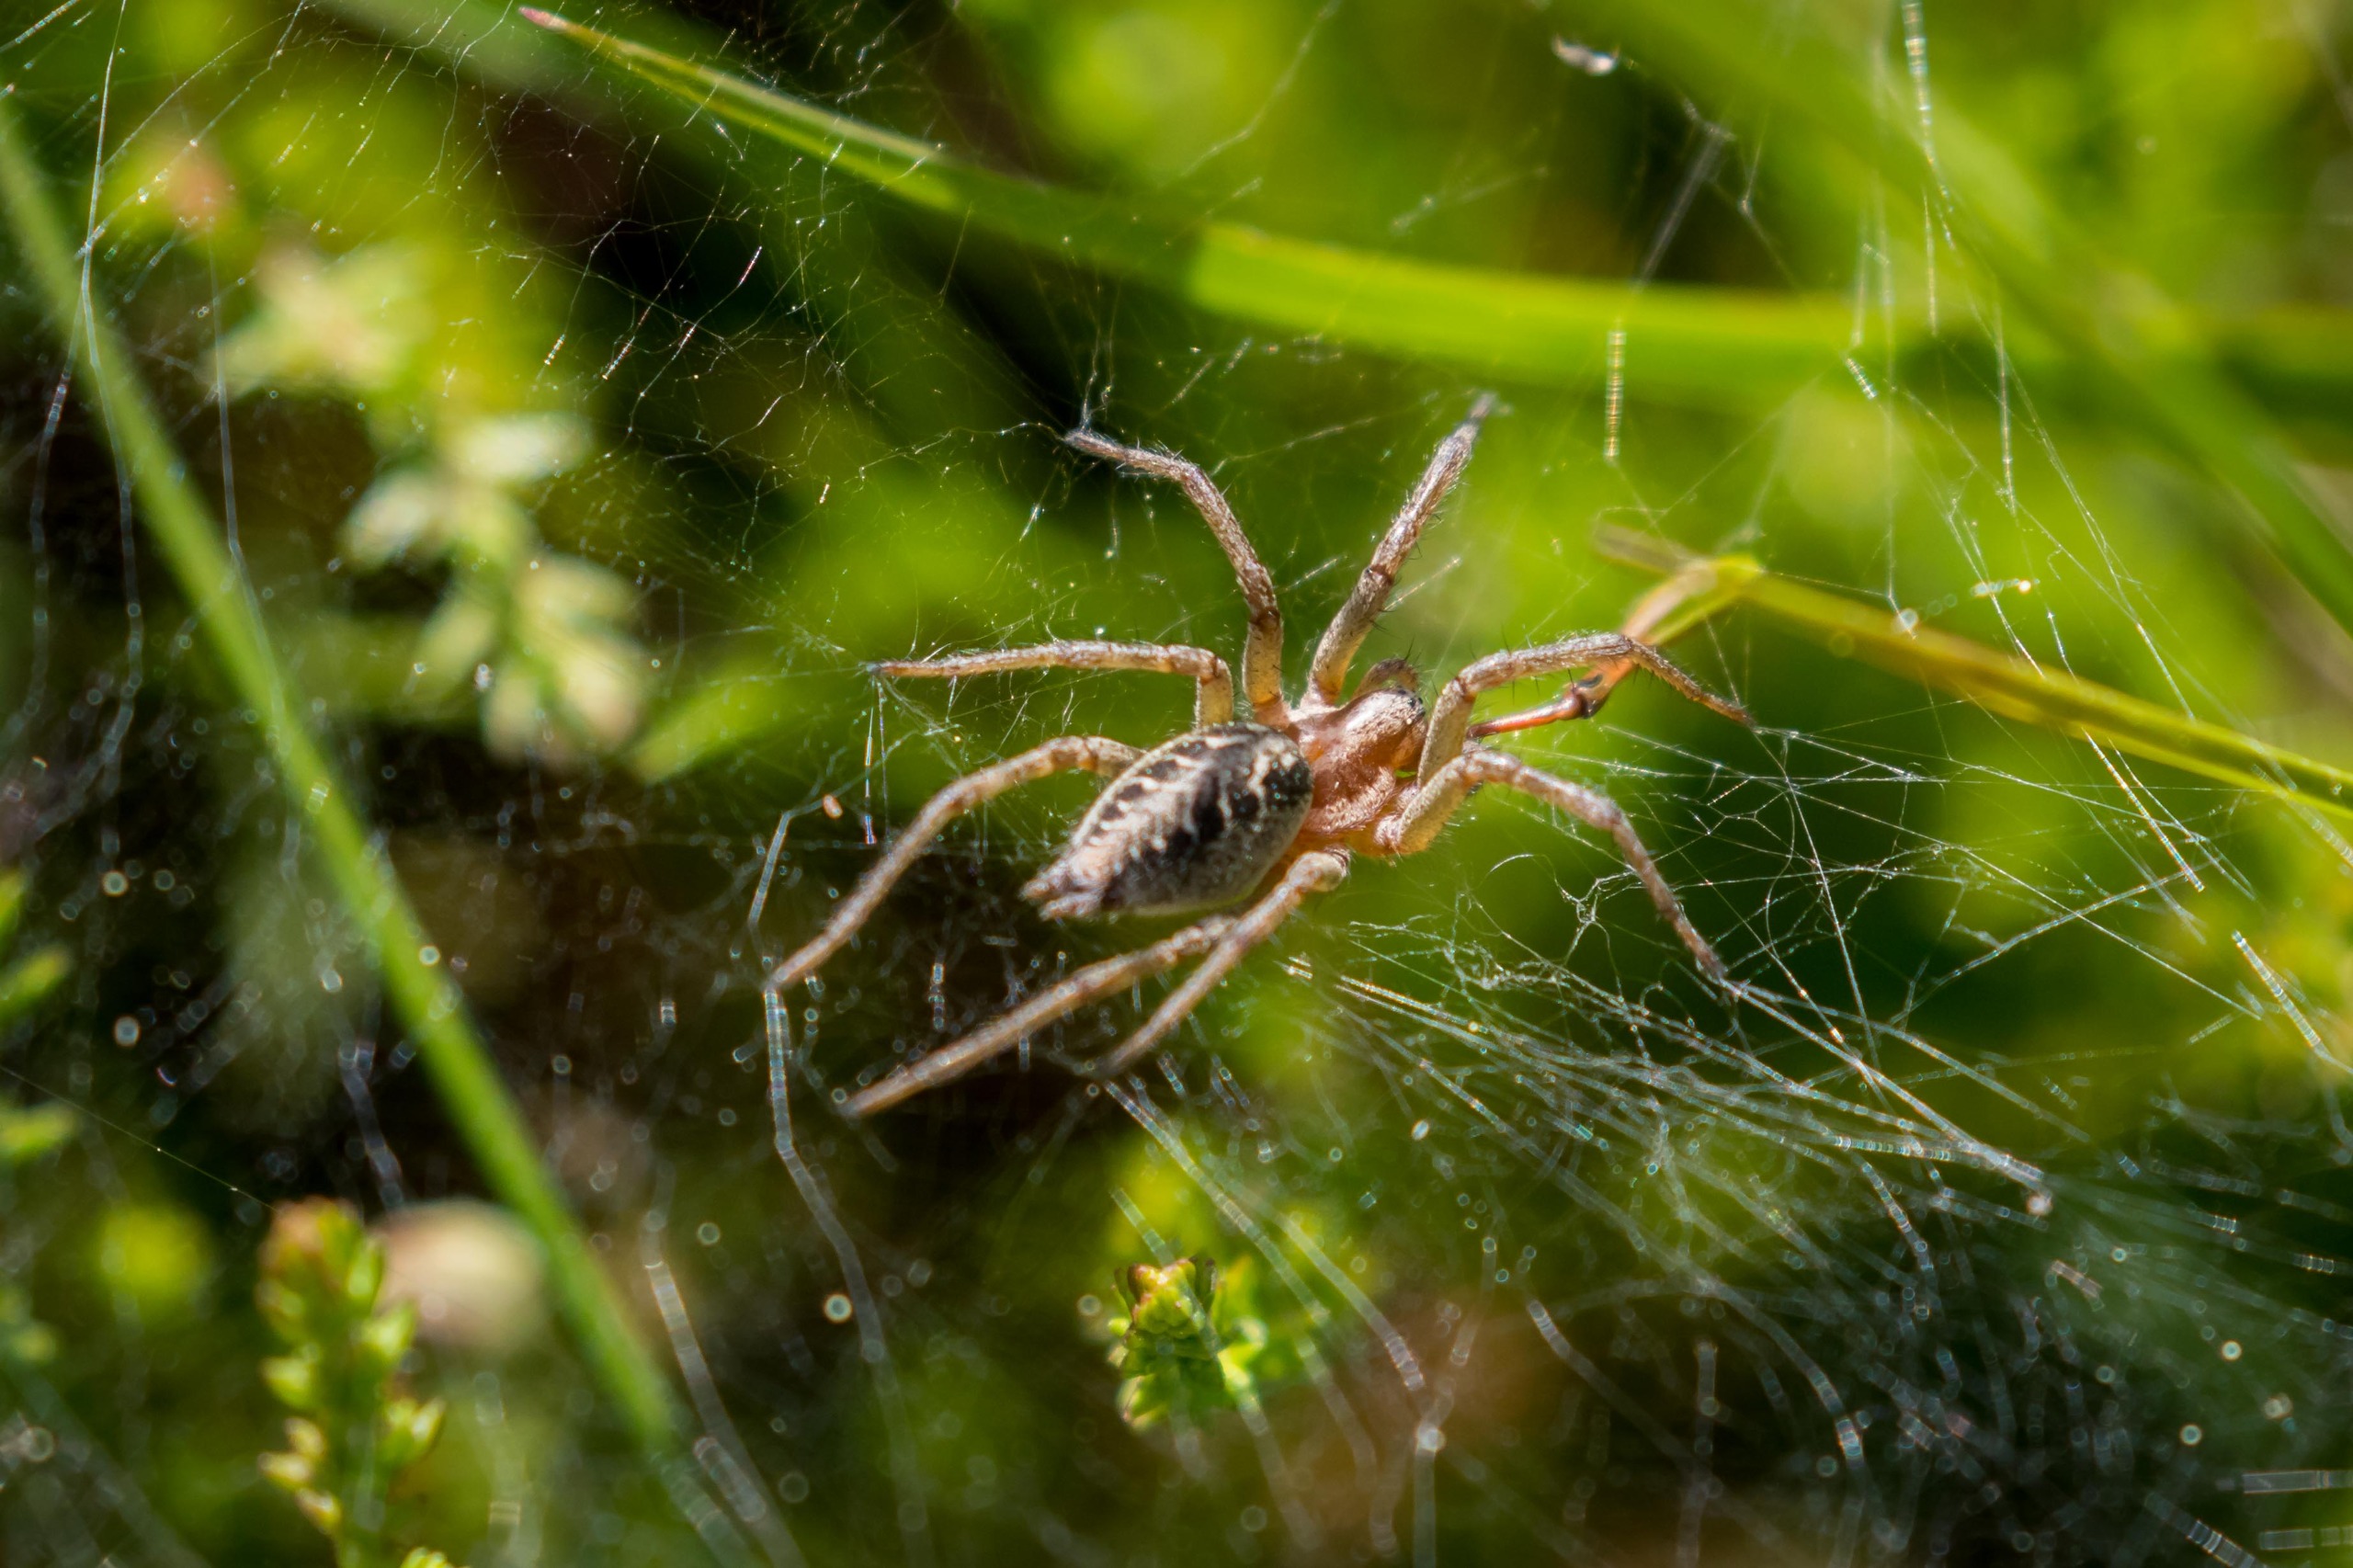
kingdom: Animalia
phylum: Arthropoda
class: Arachnida
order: Araneae
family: Agelenidae
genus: Agelena
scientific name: Agelena labyrinthica
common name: Labyrintedderkop
